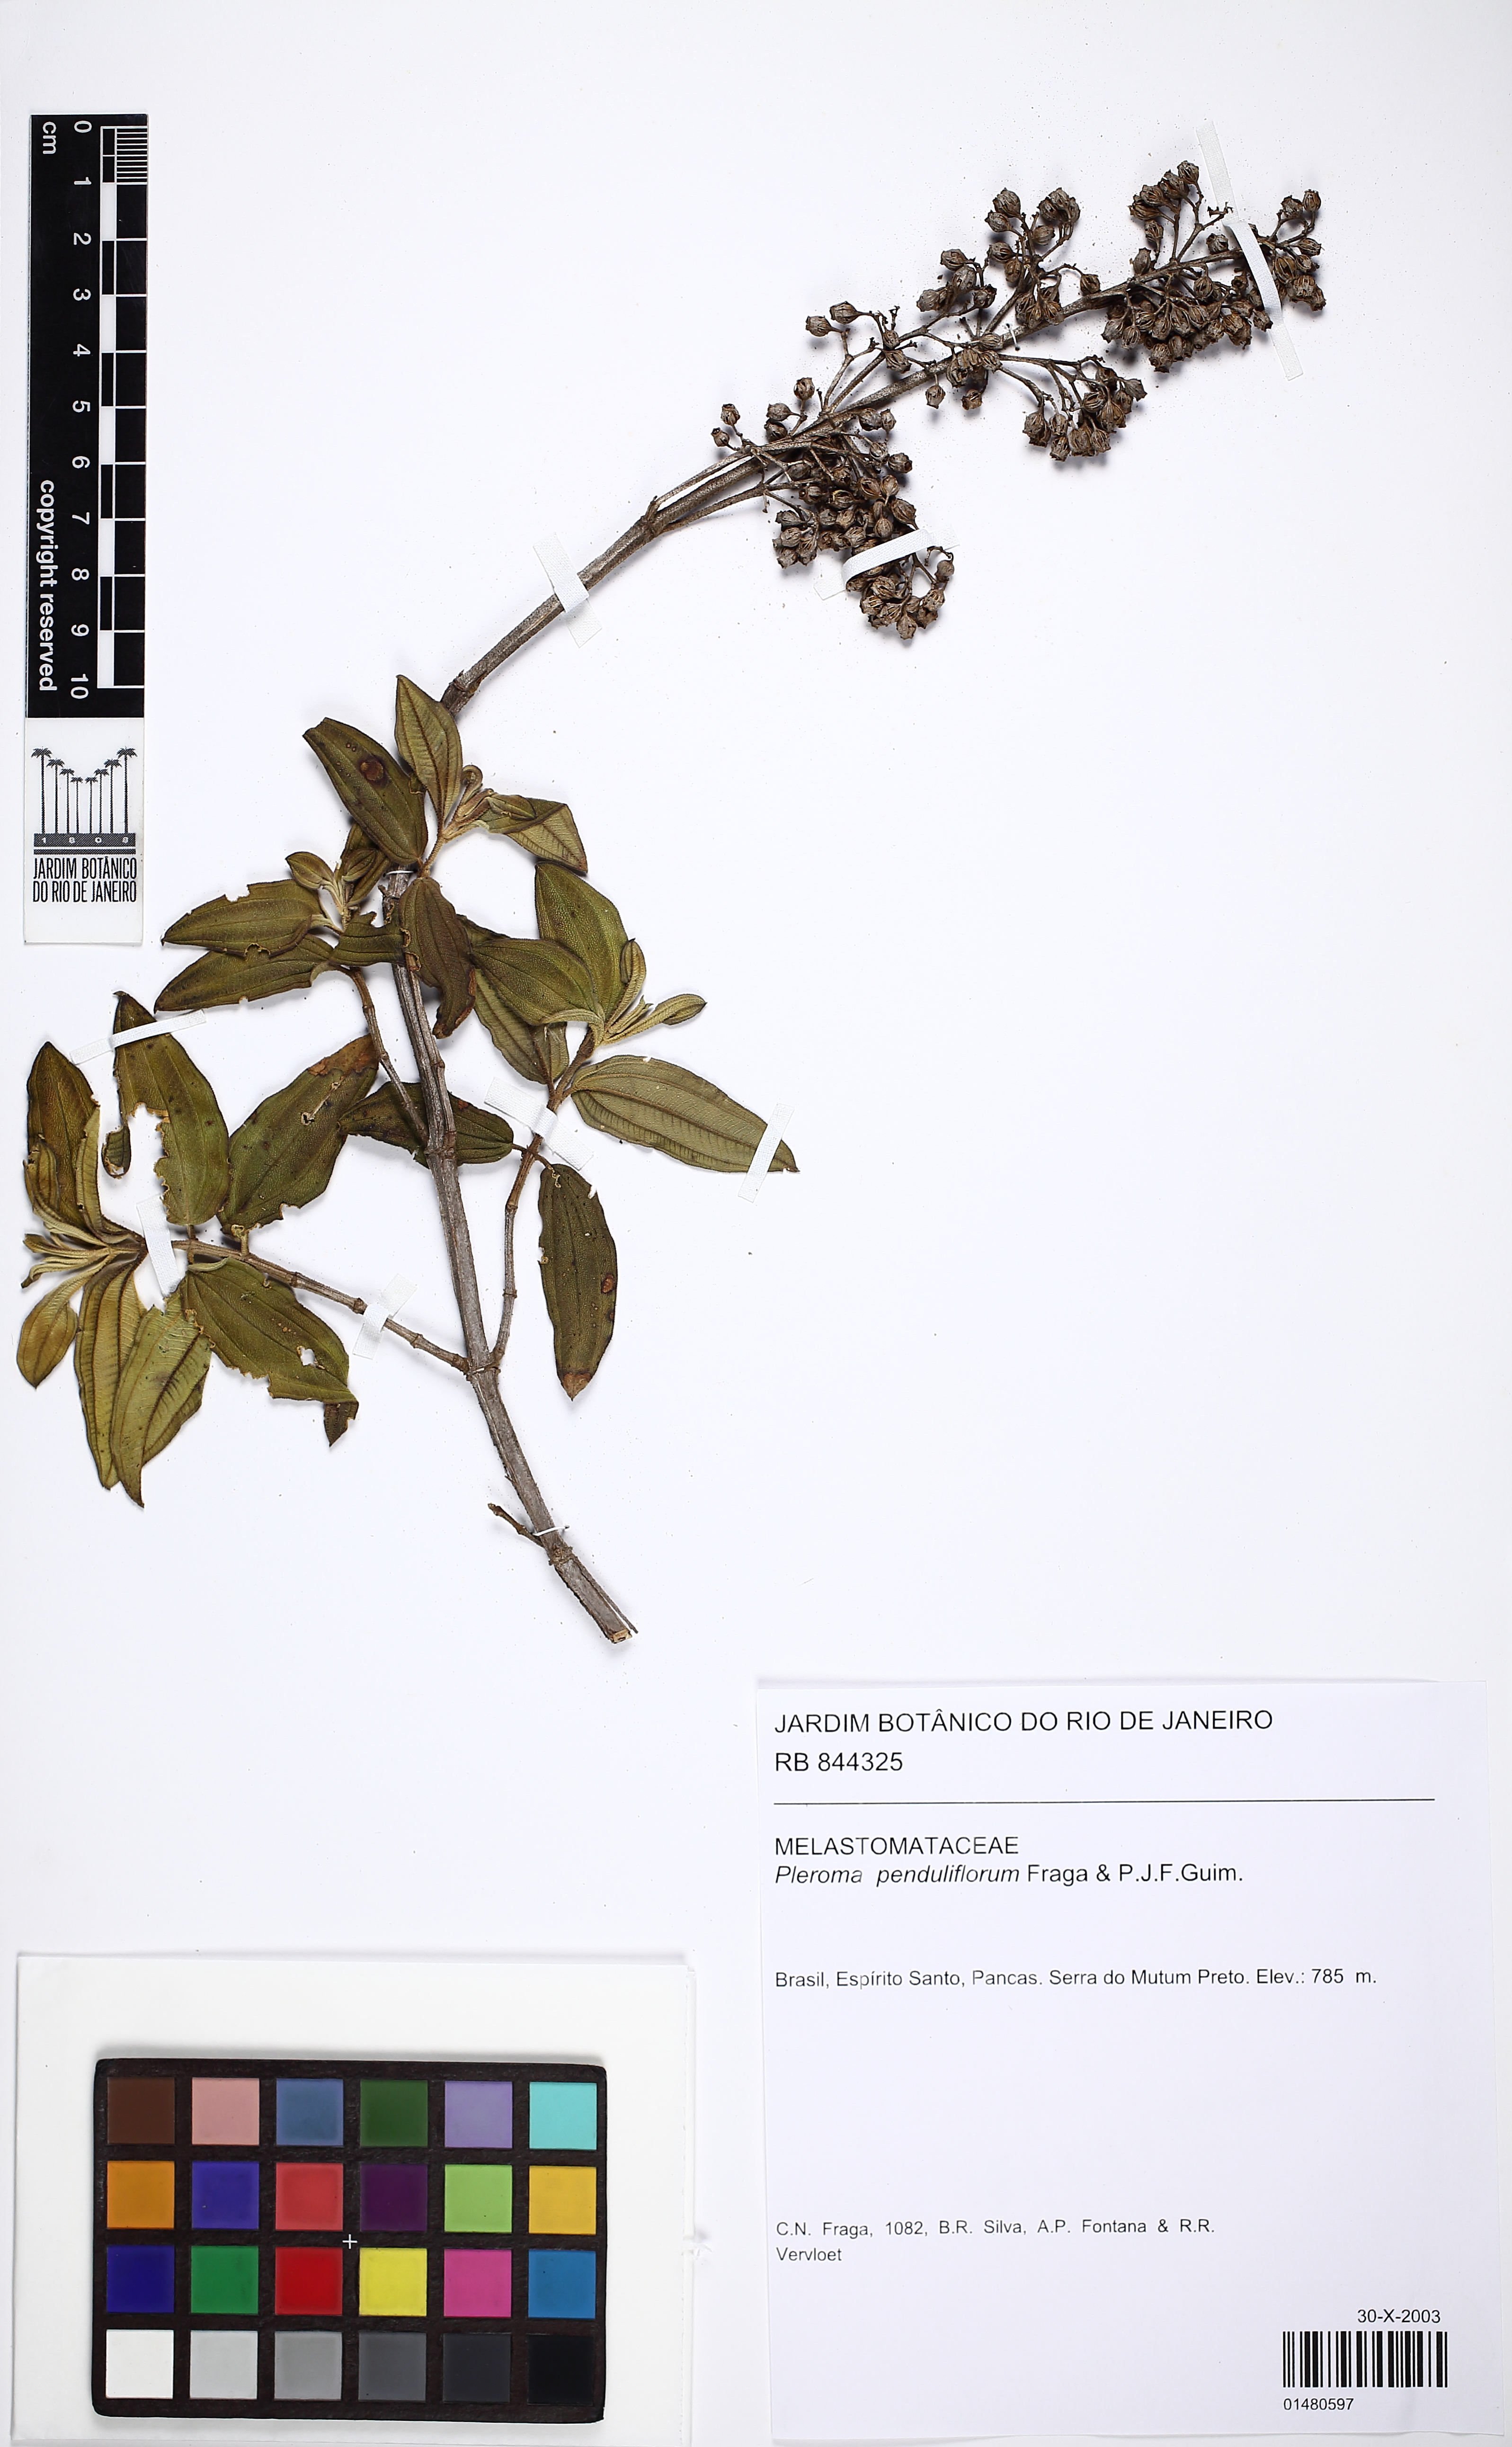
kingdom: Plantae
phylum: Tracheophyta
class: Magnoliopsida
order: Myrtales
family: Melastomataceae
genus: Pleroma
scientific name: Pleroma penduliflorum
